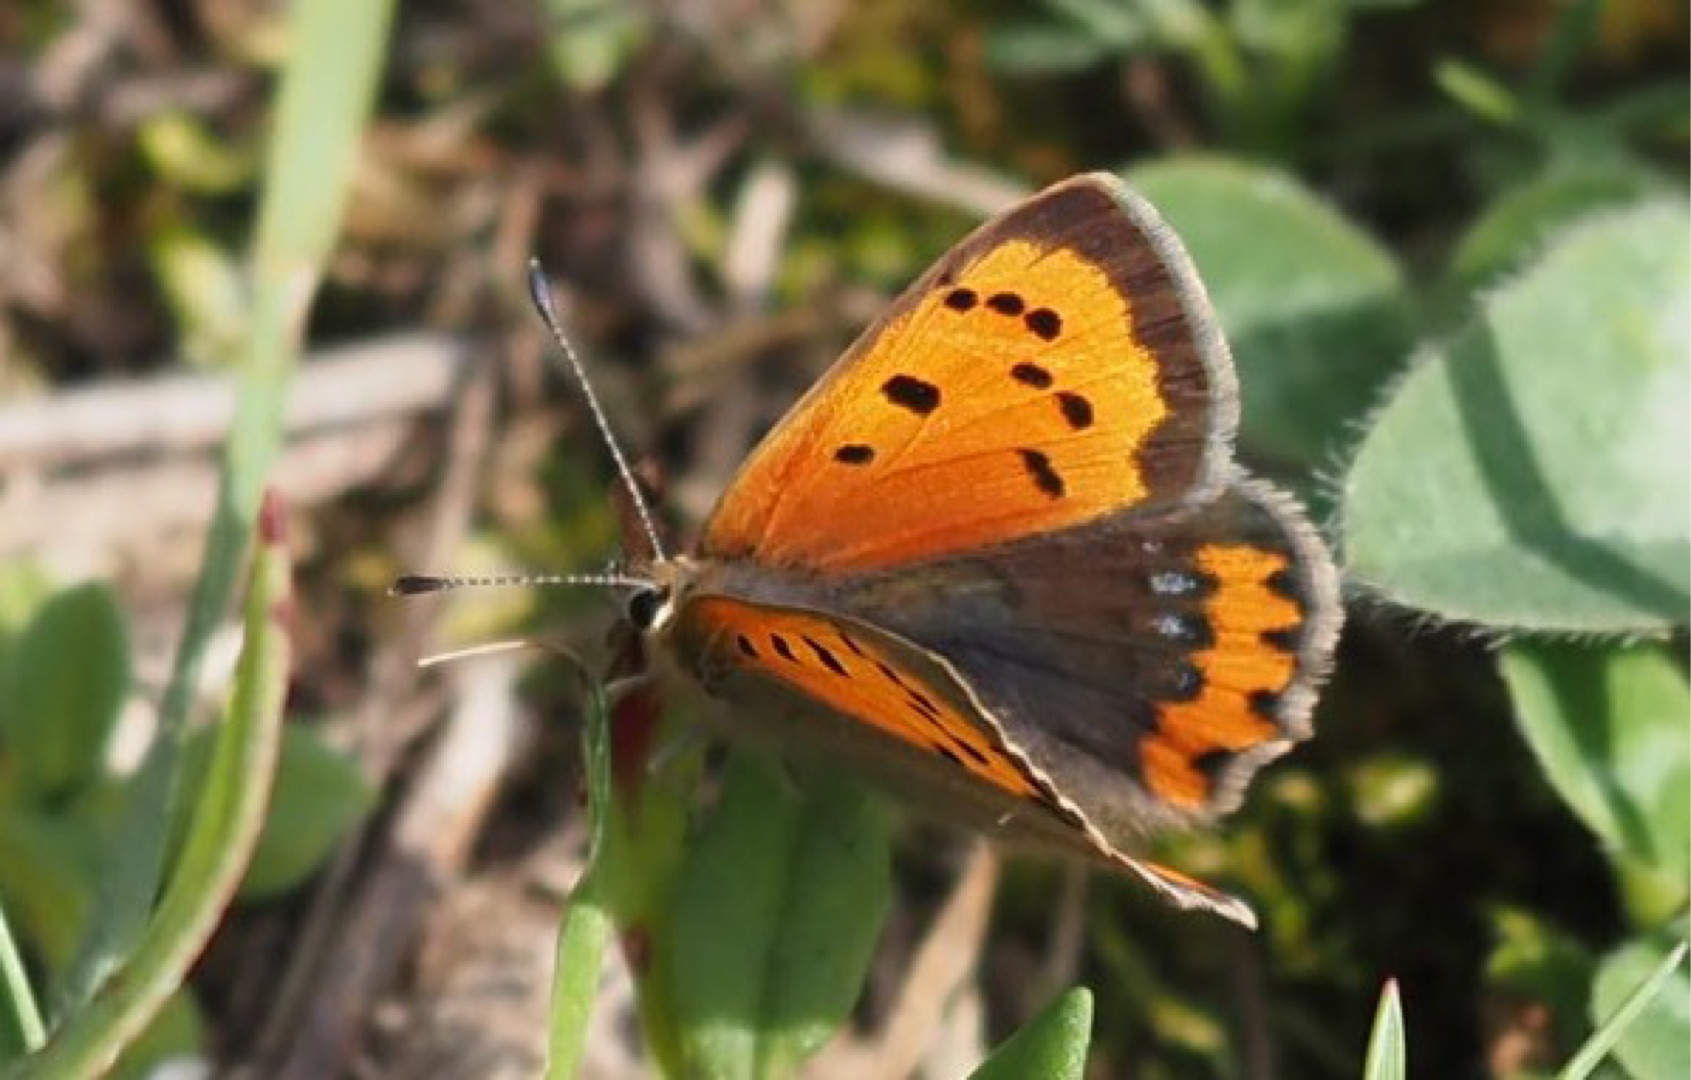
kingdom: Animalia
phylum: Arthropoda
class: Insecta
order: Lepidoptera
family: Lycaenidae
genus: Lycaena
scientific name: Lycaena phlaeas
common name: Lille ildfugl
